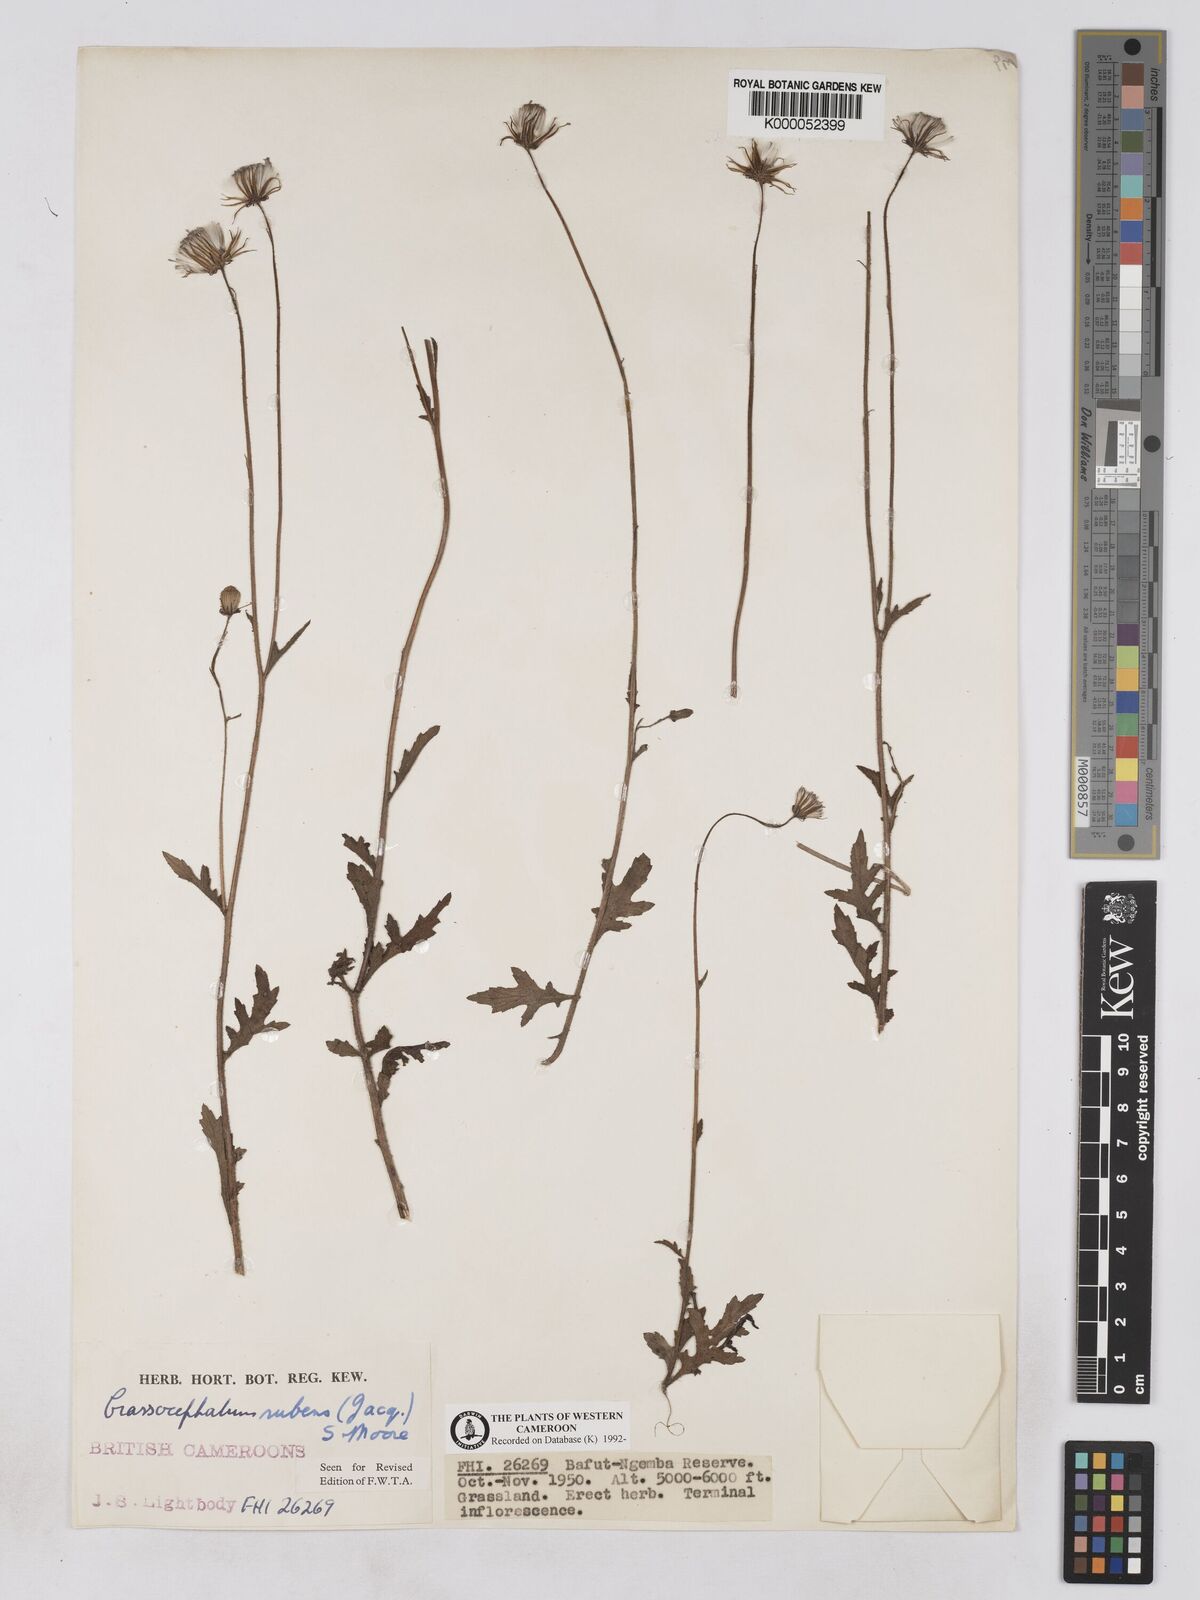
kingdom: Plantae
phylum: Tracheophyta
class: Magnoliopsida
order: Asterales
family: Asteraceae
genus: Crassocephalum
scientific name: Crassocephalum rubens
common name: Yoruban bologi
